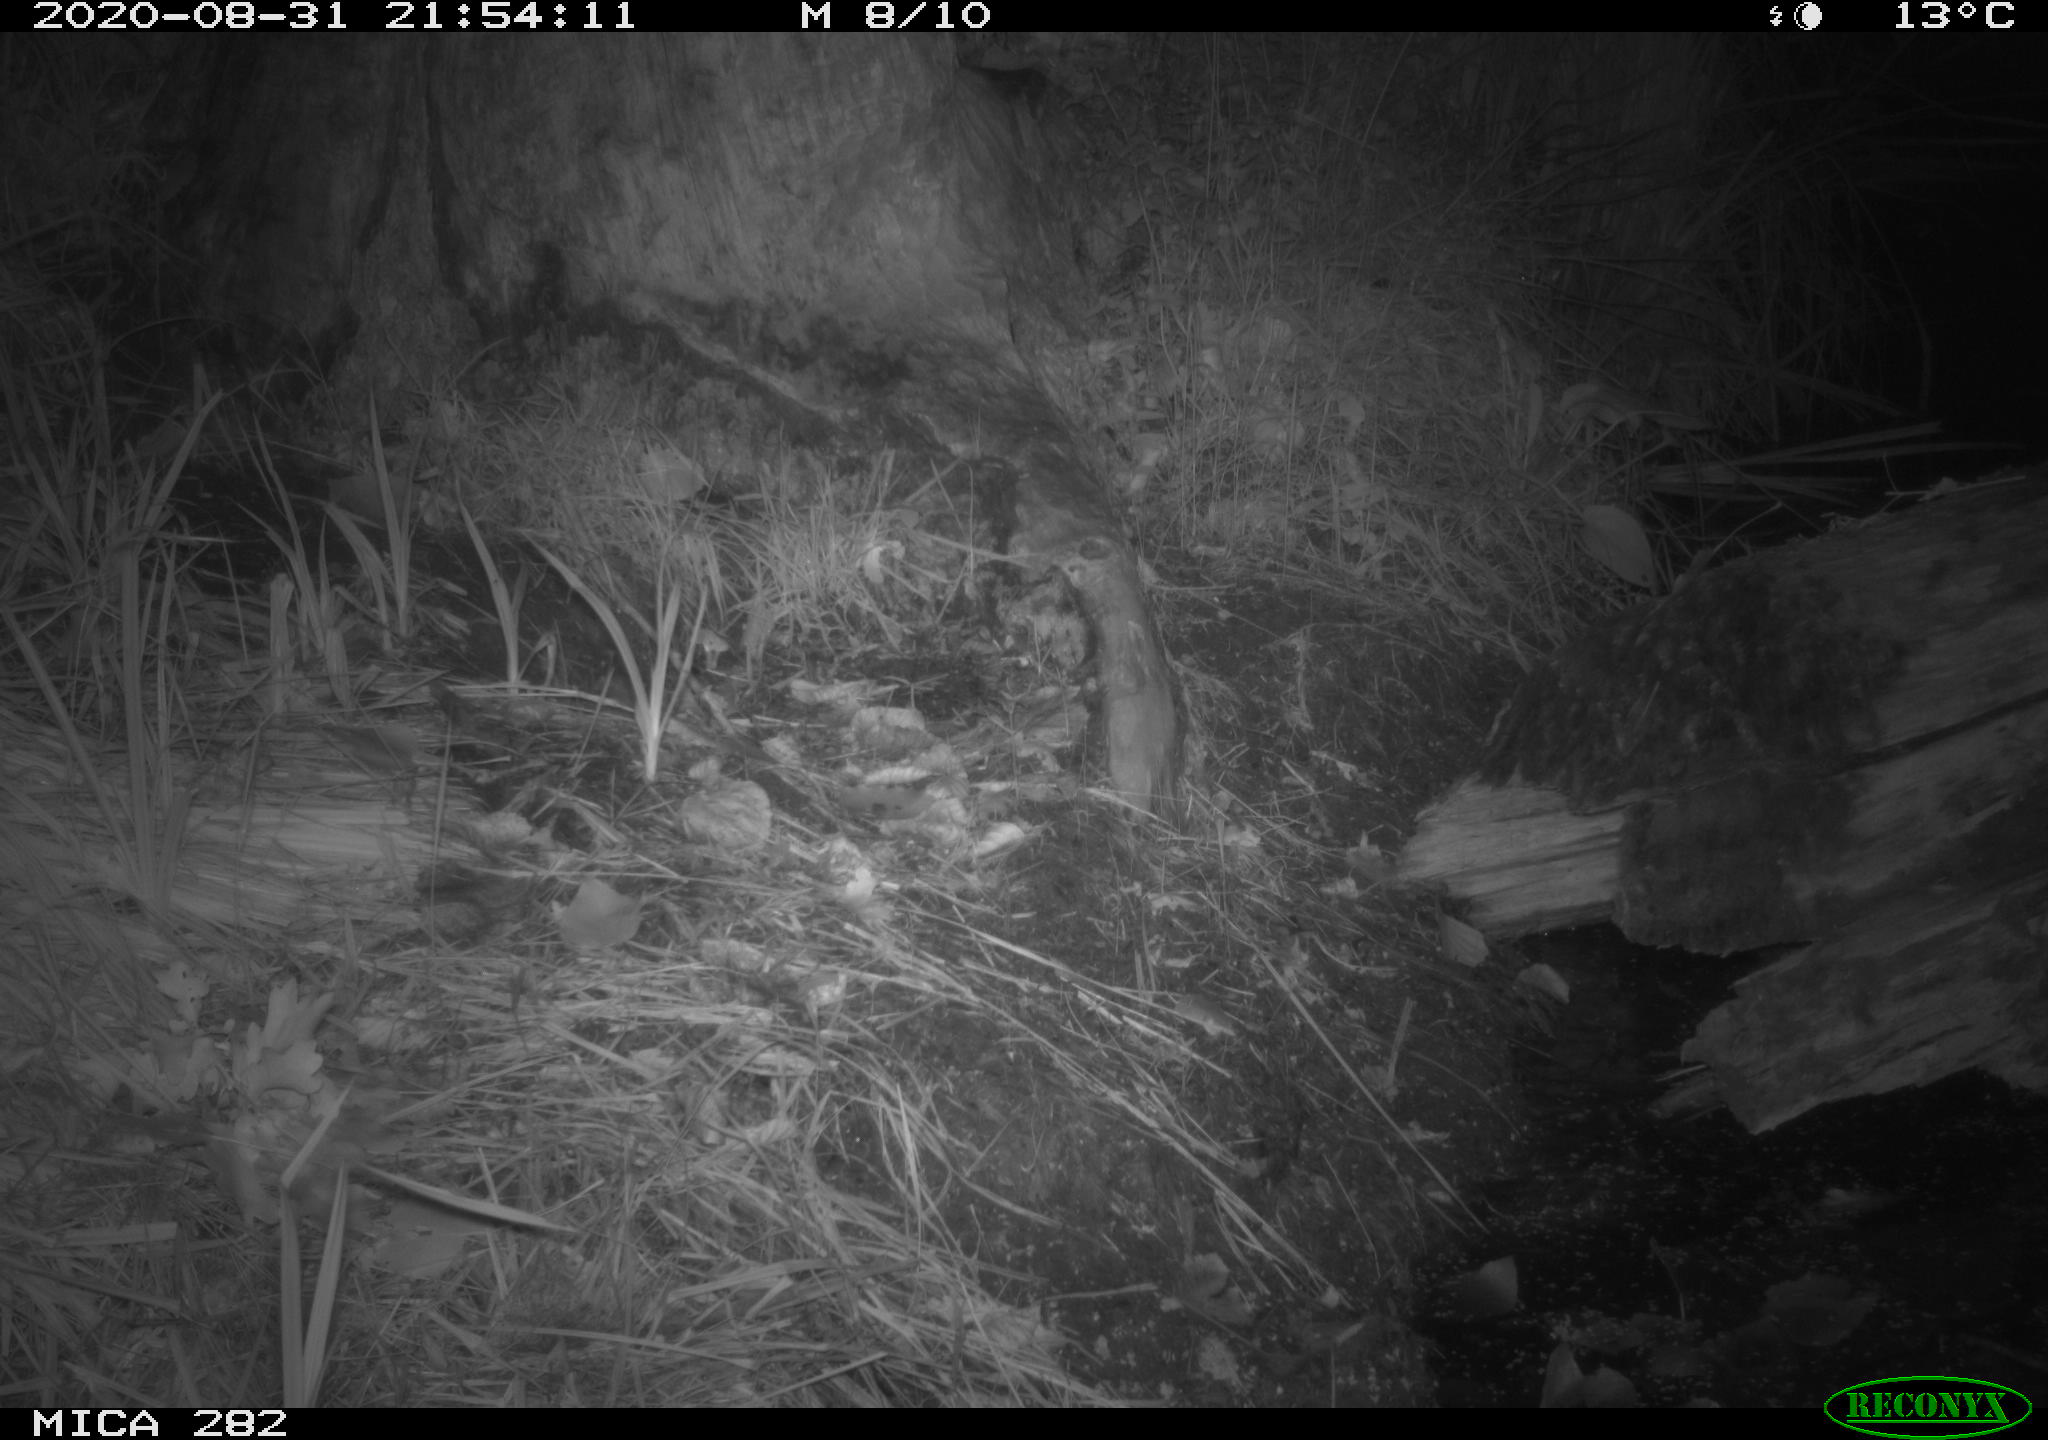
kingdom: Animalia
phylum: Chordata
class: Mammalia
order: Carnivora
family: Canidae
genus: Vulpes
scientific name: Vulpes vulpes
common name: Red fox
